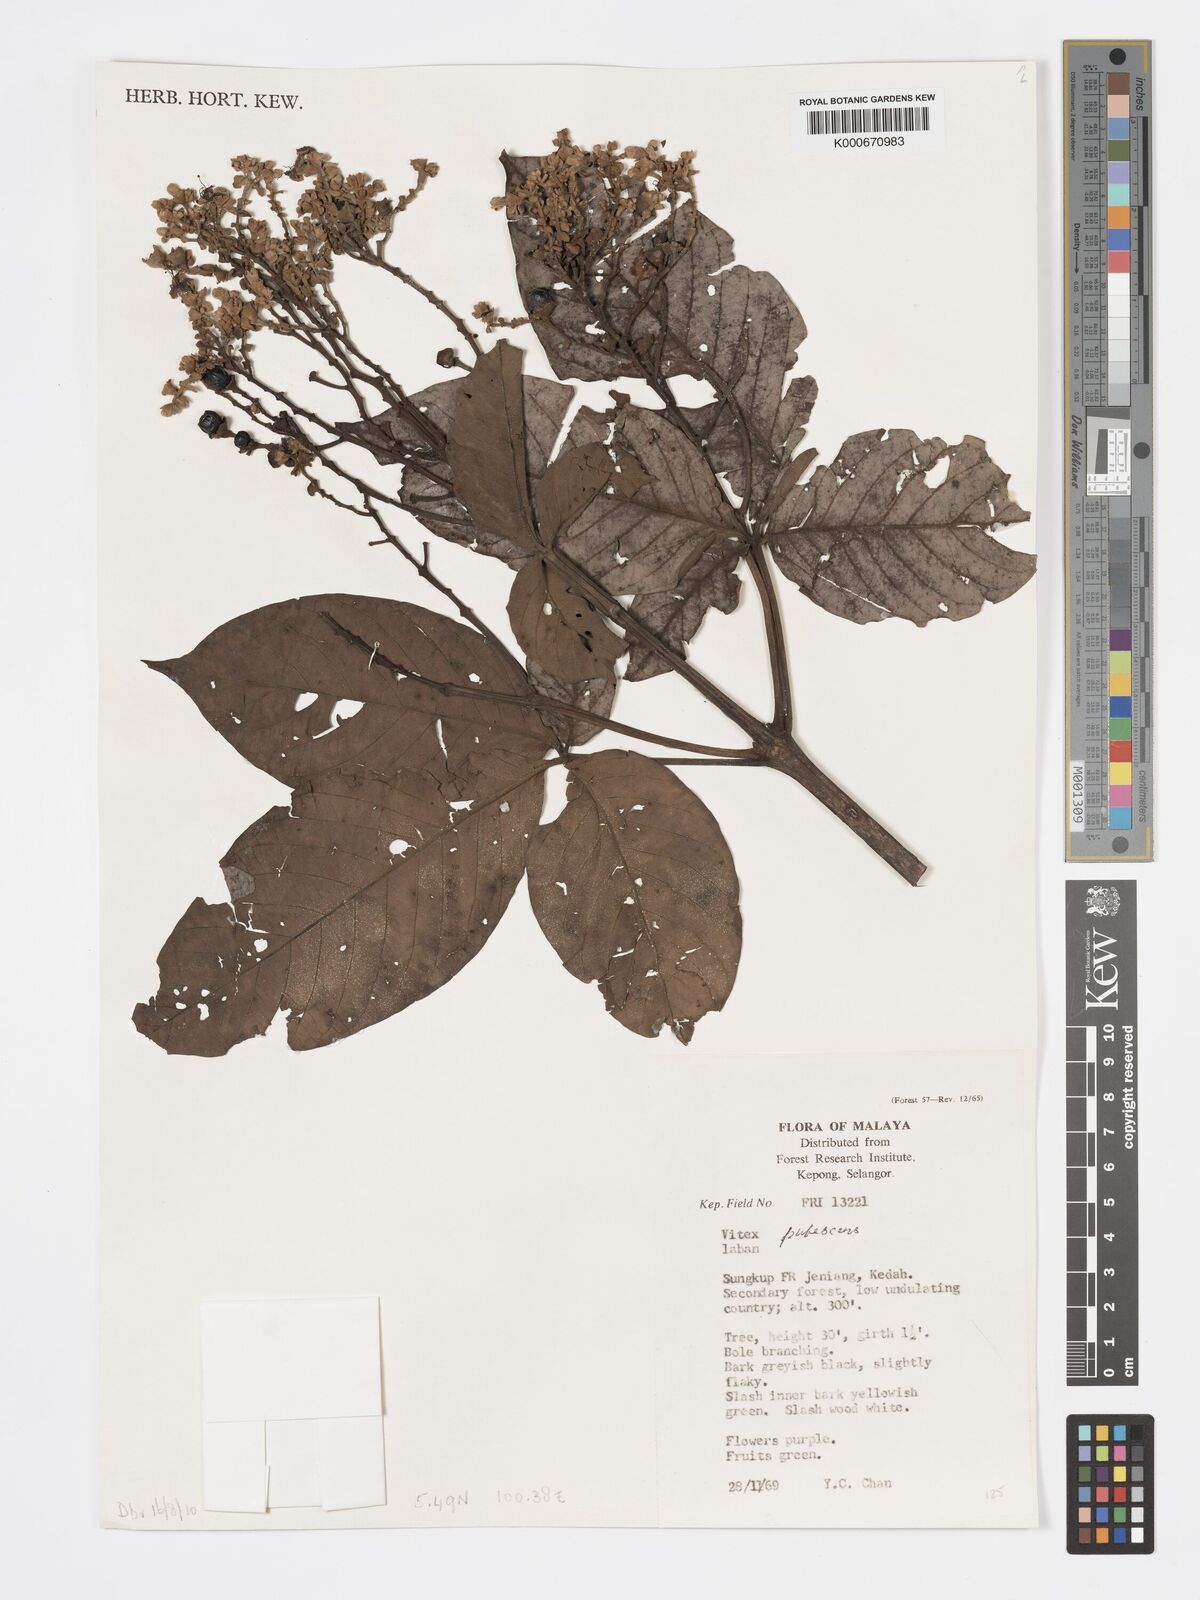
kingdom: Plantae
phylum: Tracheophyta
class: Magnoliopsida
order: Lamiales
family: Lamiaceae
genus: Vitex
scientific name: Vitex pinnata
